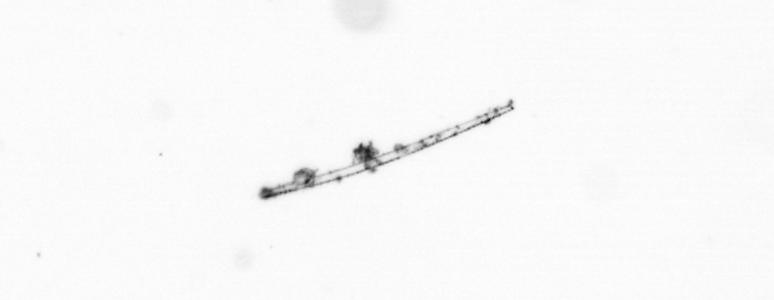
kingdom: Chromista
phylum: Ochrophyta
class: Bacillariophyceae
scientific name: Bacillariophyceae
